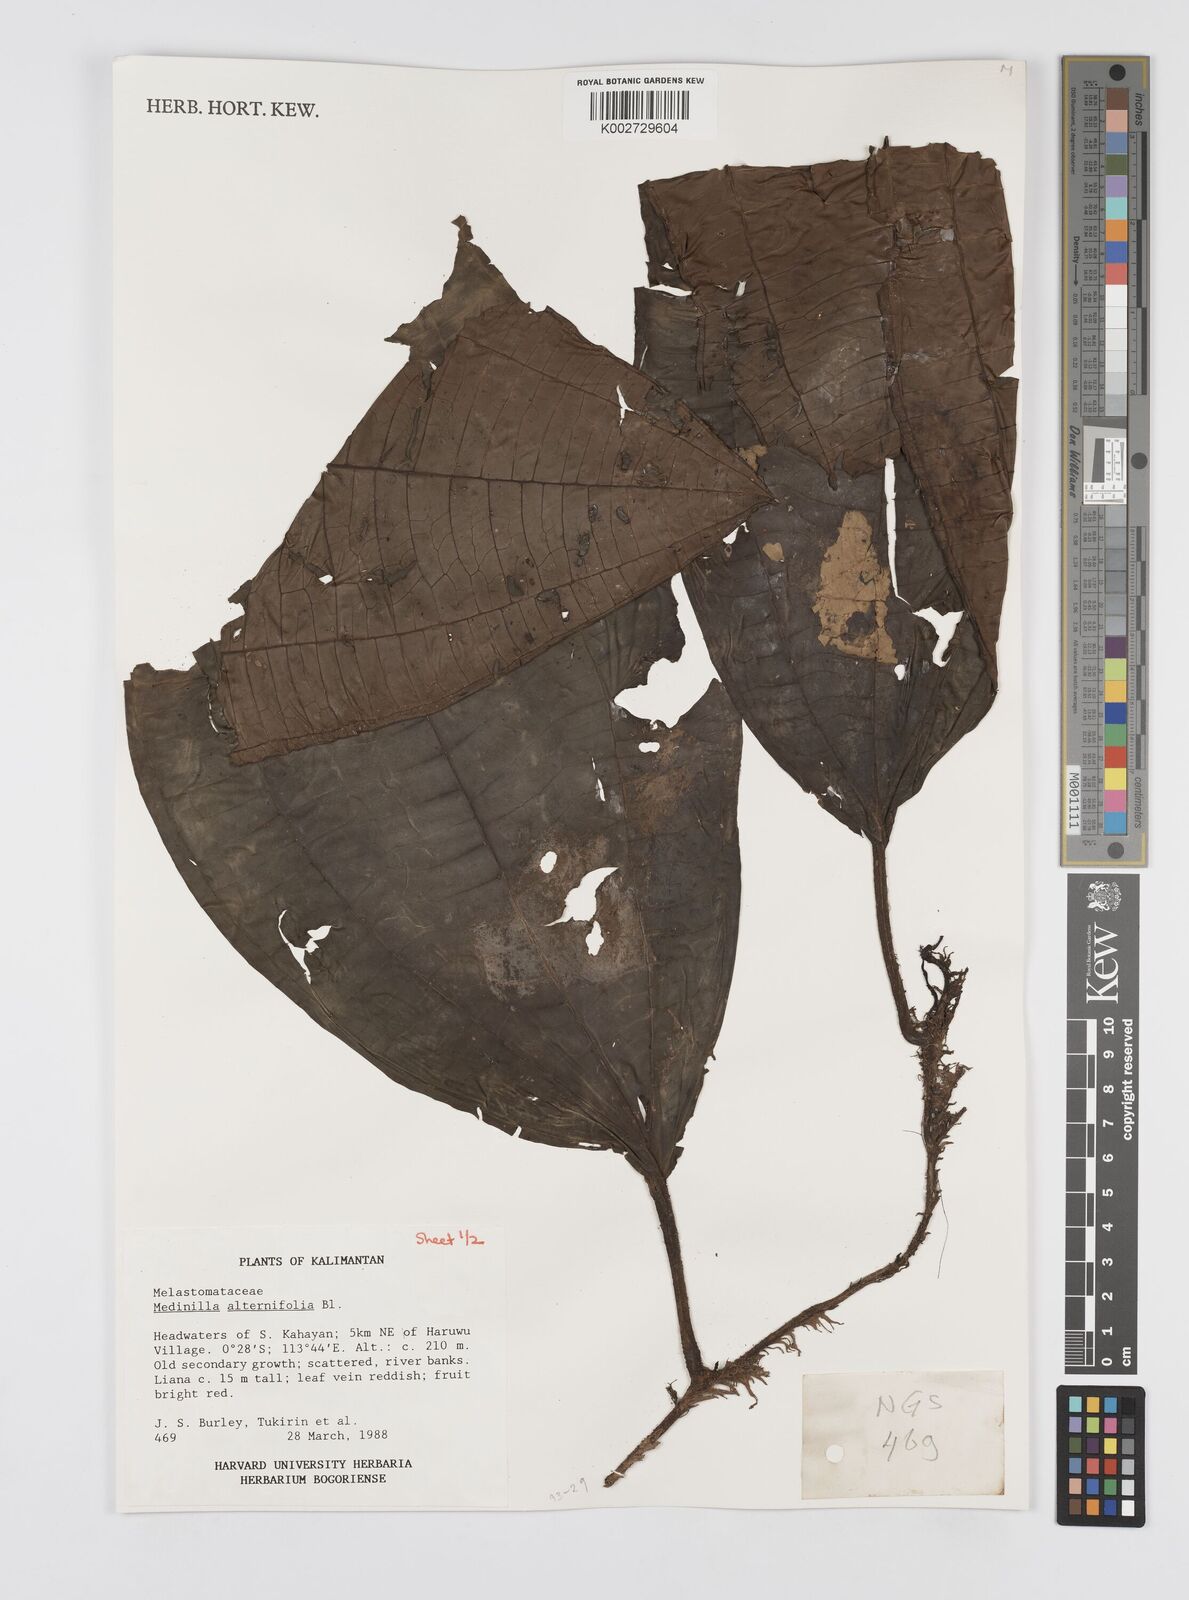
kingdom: Plantae
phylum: Tracheophyta
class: Magnoliopsida
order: Myrtales
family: Melastomataceae
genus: Heteroblemma
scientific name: Heteroblemma alternifolium
